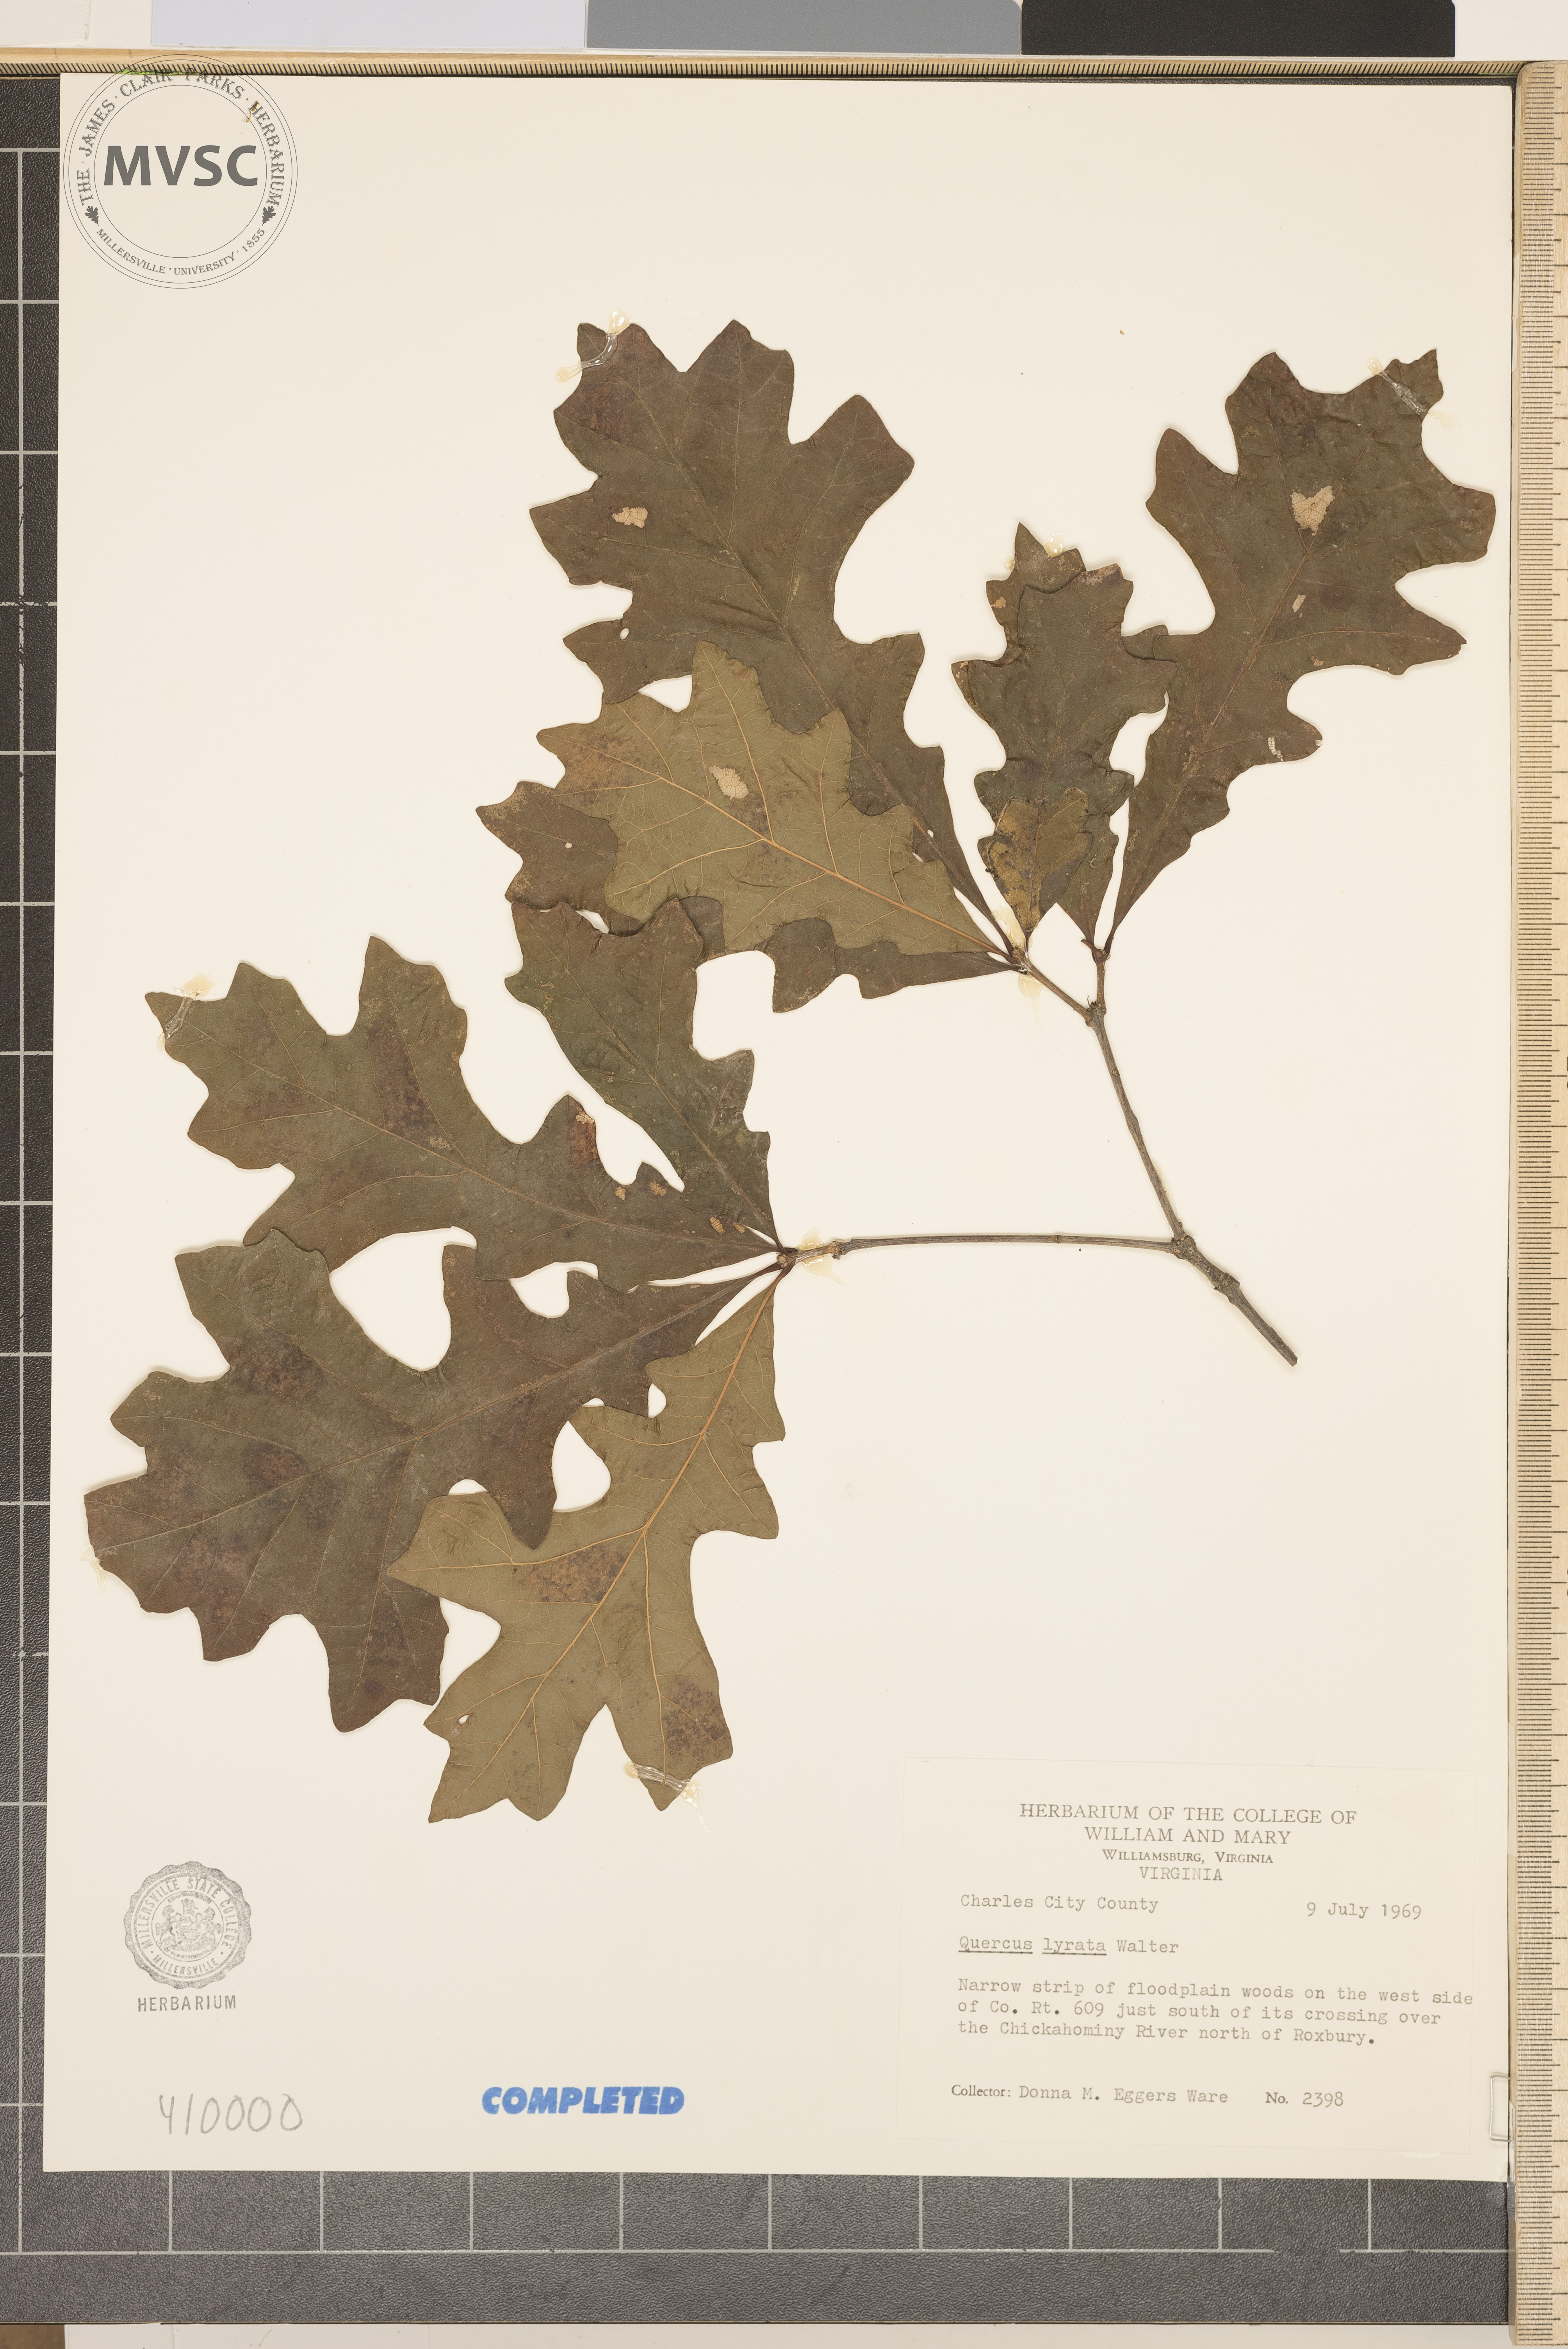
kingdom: Plantae
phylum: Tracheophyta
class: Magnoliopsida
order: Fagales
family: Fagaceae
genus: Quercus
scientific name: Quercus lyrata
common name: Overcup Oak
